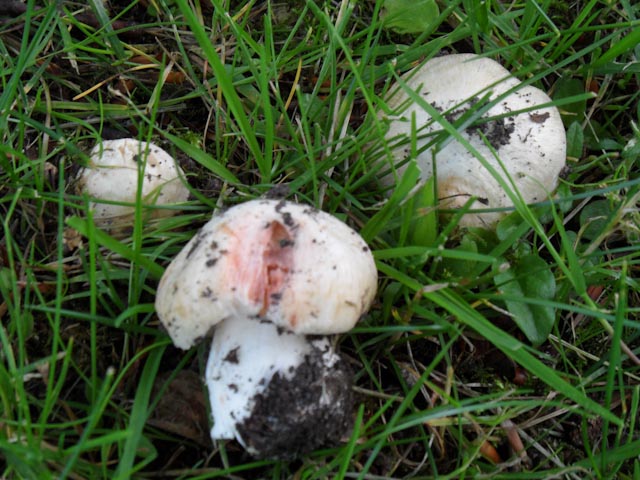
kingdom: Fungi
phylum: Basidiomycota
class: Agaricomycetes
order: Agaricales
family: Inocybaceae
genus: Inosperma
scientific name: Inosperma erubescens
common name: giftig trævlhat
